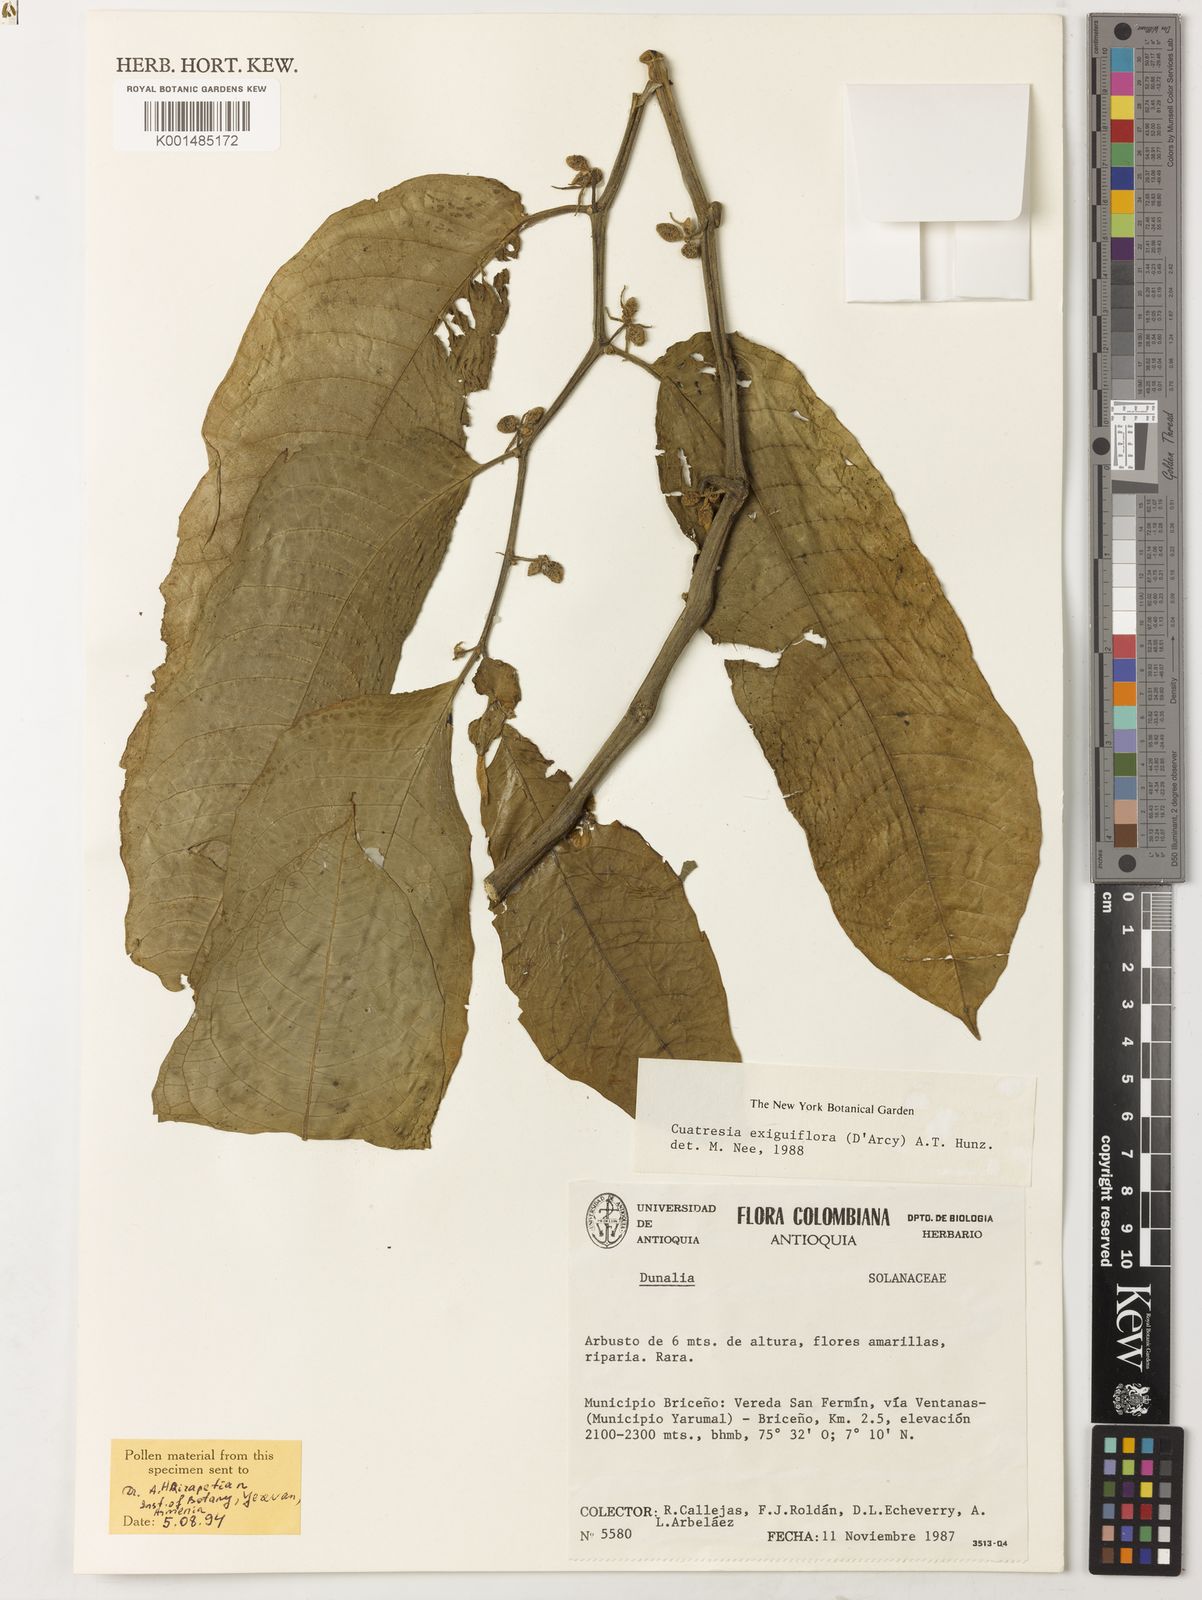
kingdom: Plantae
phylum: Tracheophyta
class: Magnoliopsida
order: Solanales
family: Solanaceae
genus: Cuatresia
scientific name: Cuatresia exiguiflora
